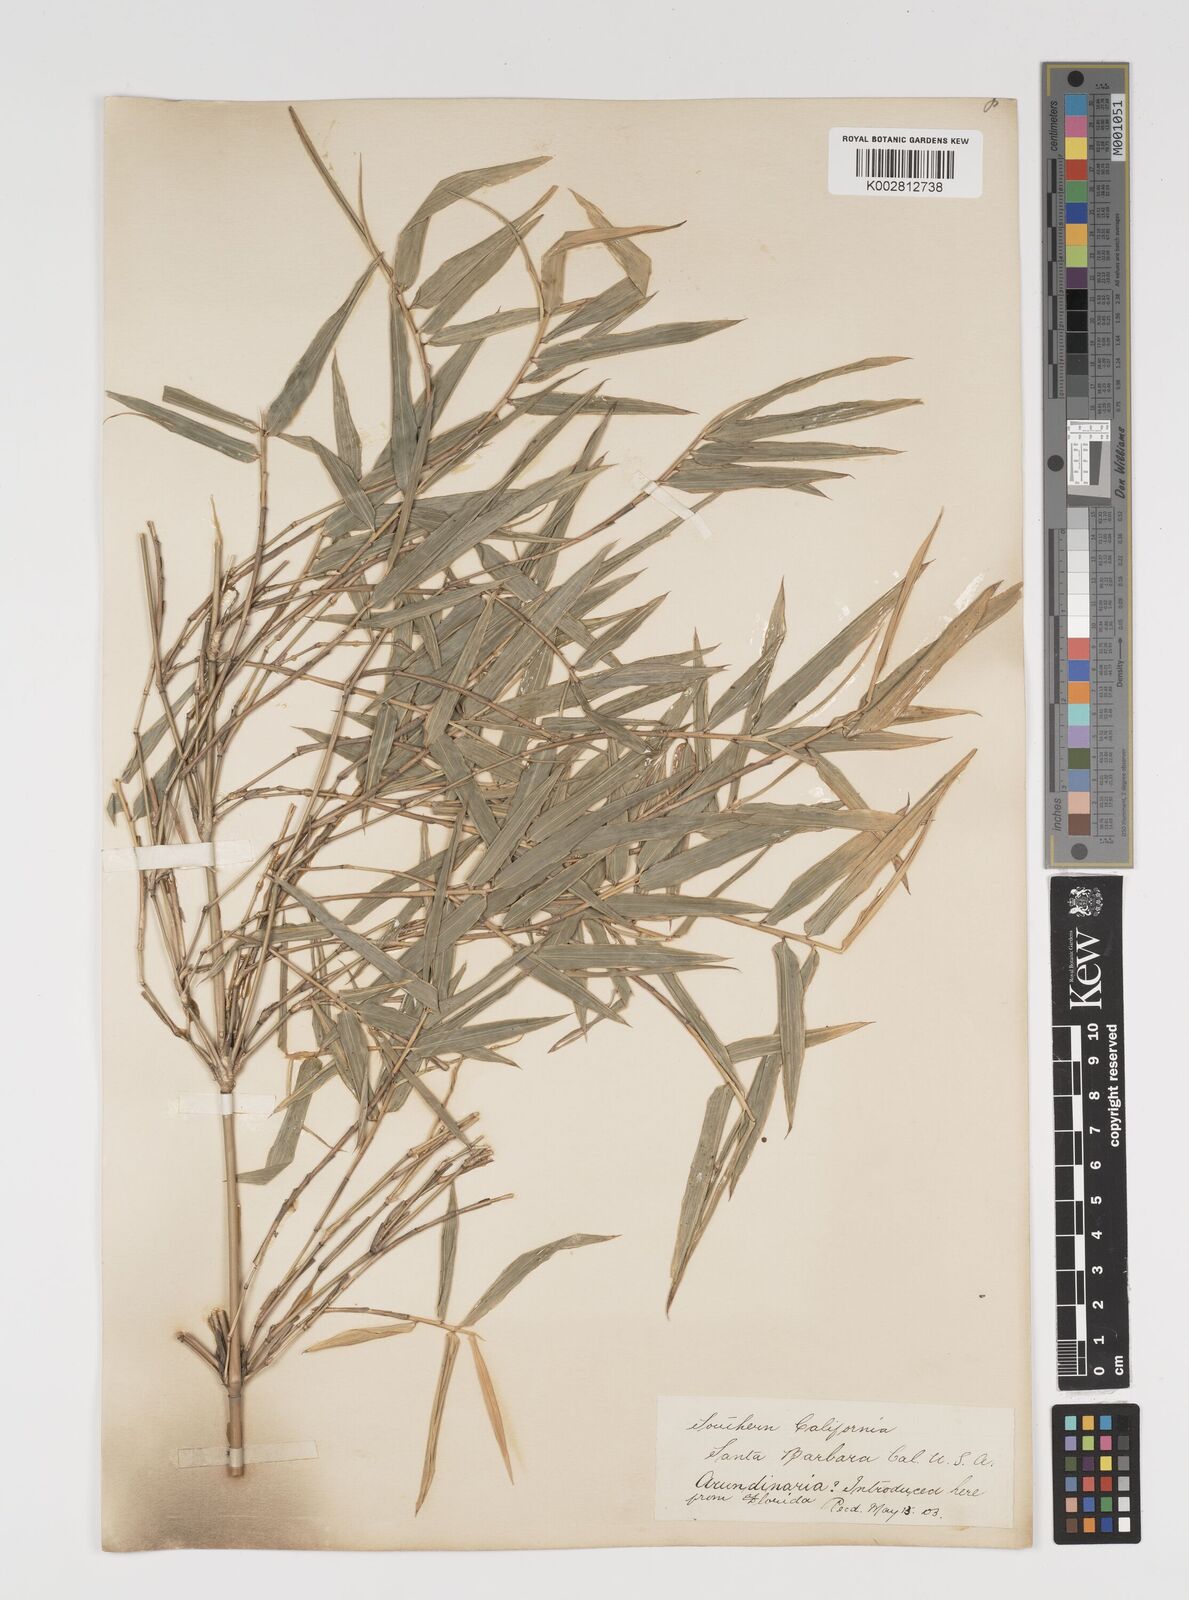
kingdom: Plantae
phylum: Tracheophyta
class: Liliopsida
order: Poales
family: Poaceae
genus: Arundinaria
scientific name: Arundinaria
